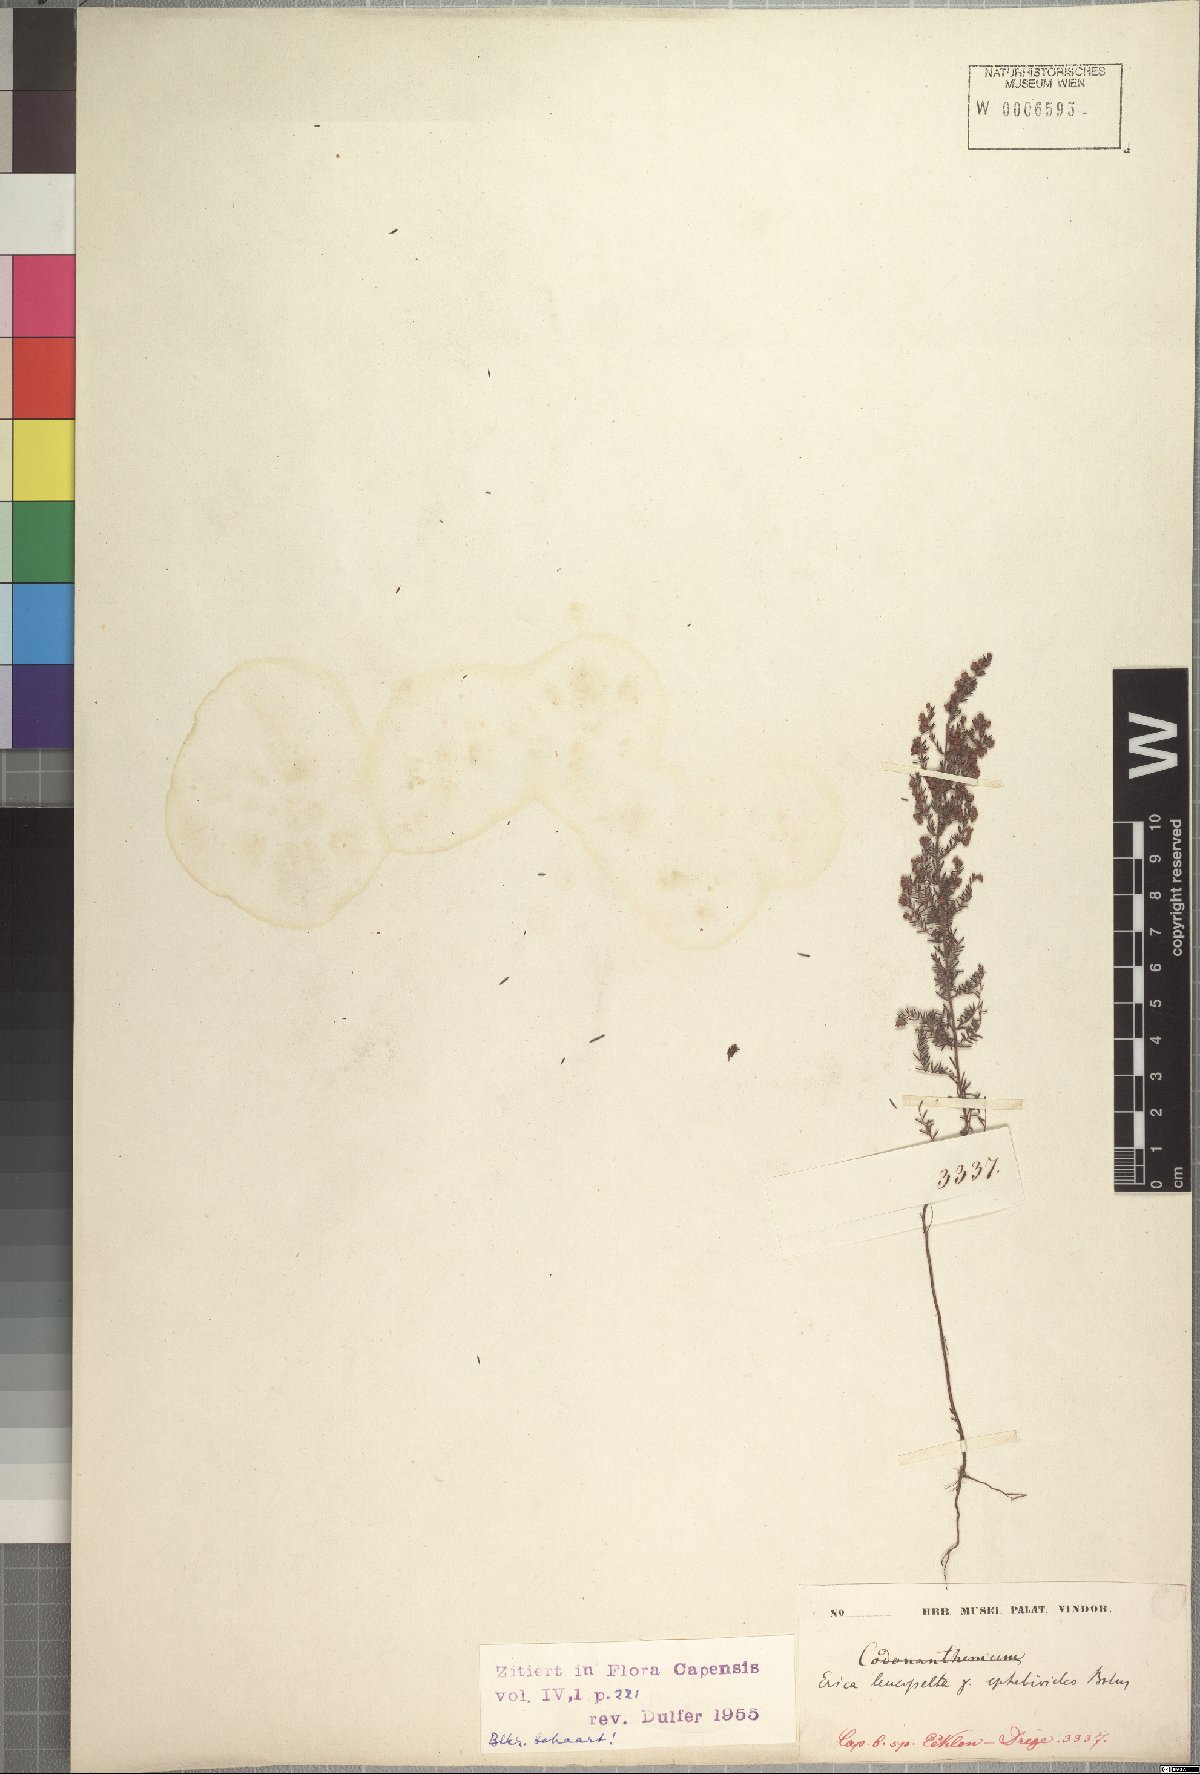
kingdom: Plantae
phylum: Tracheophyta
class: Magnoliopsida
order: Ericales
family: Ericaceae
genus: Erica
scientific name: Erica leucopelta
